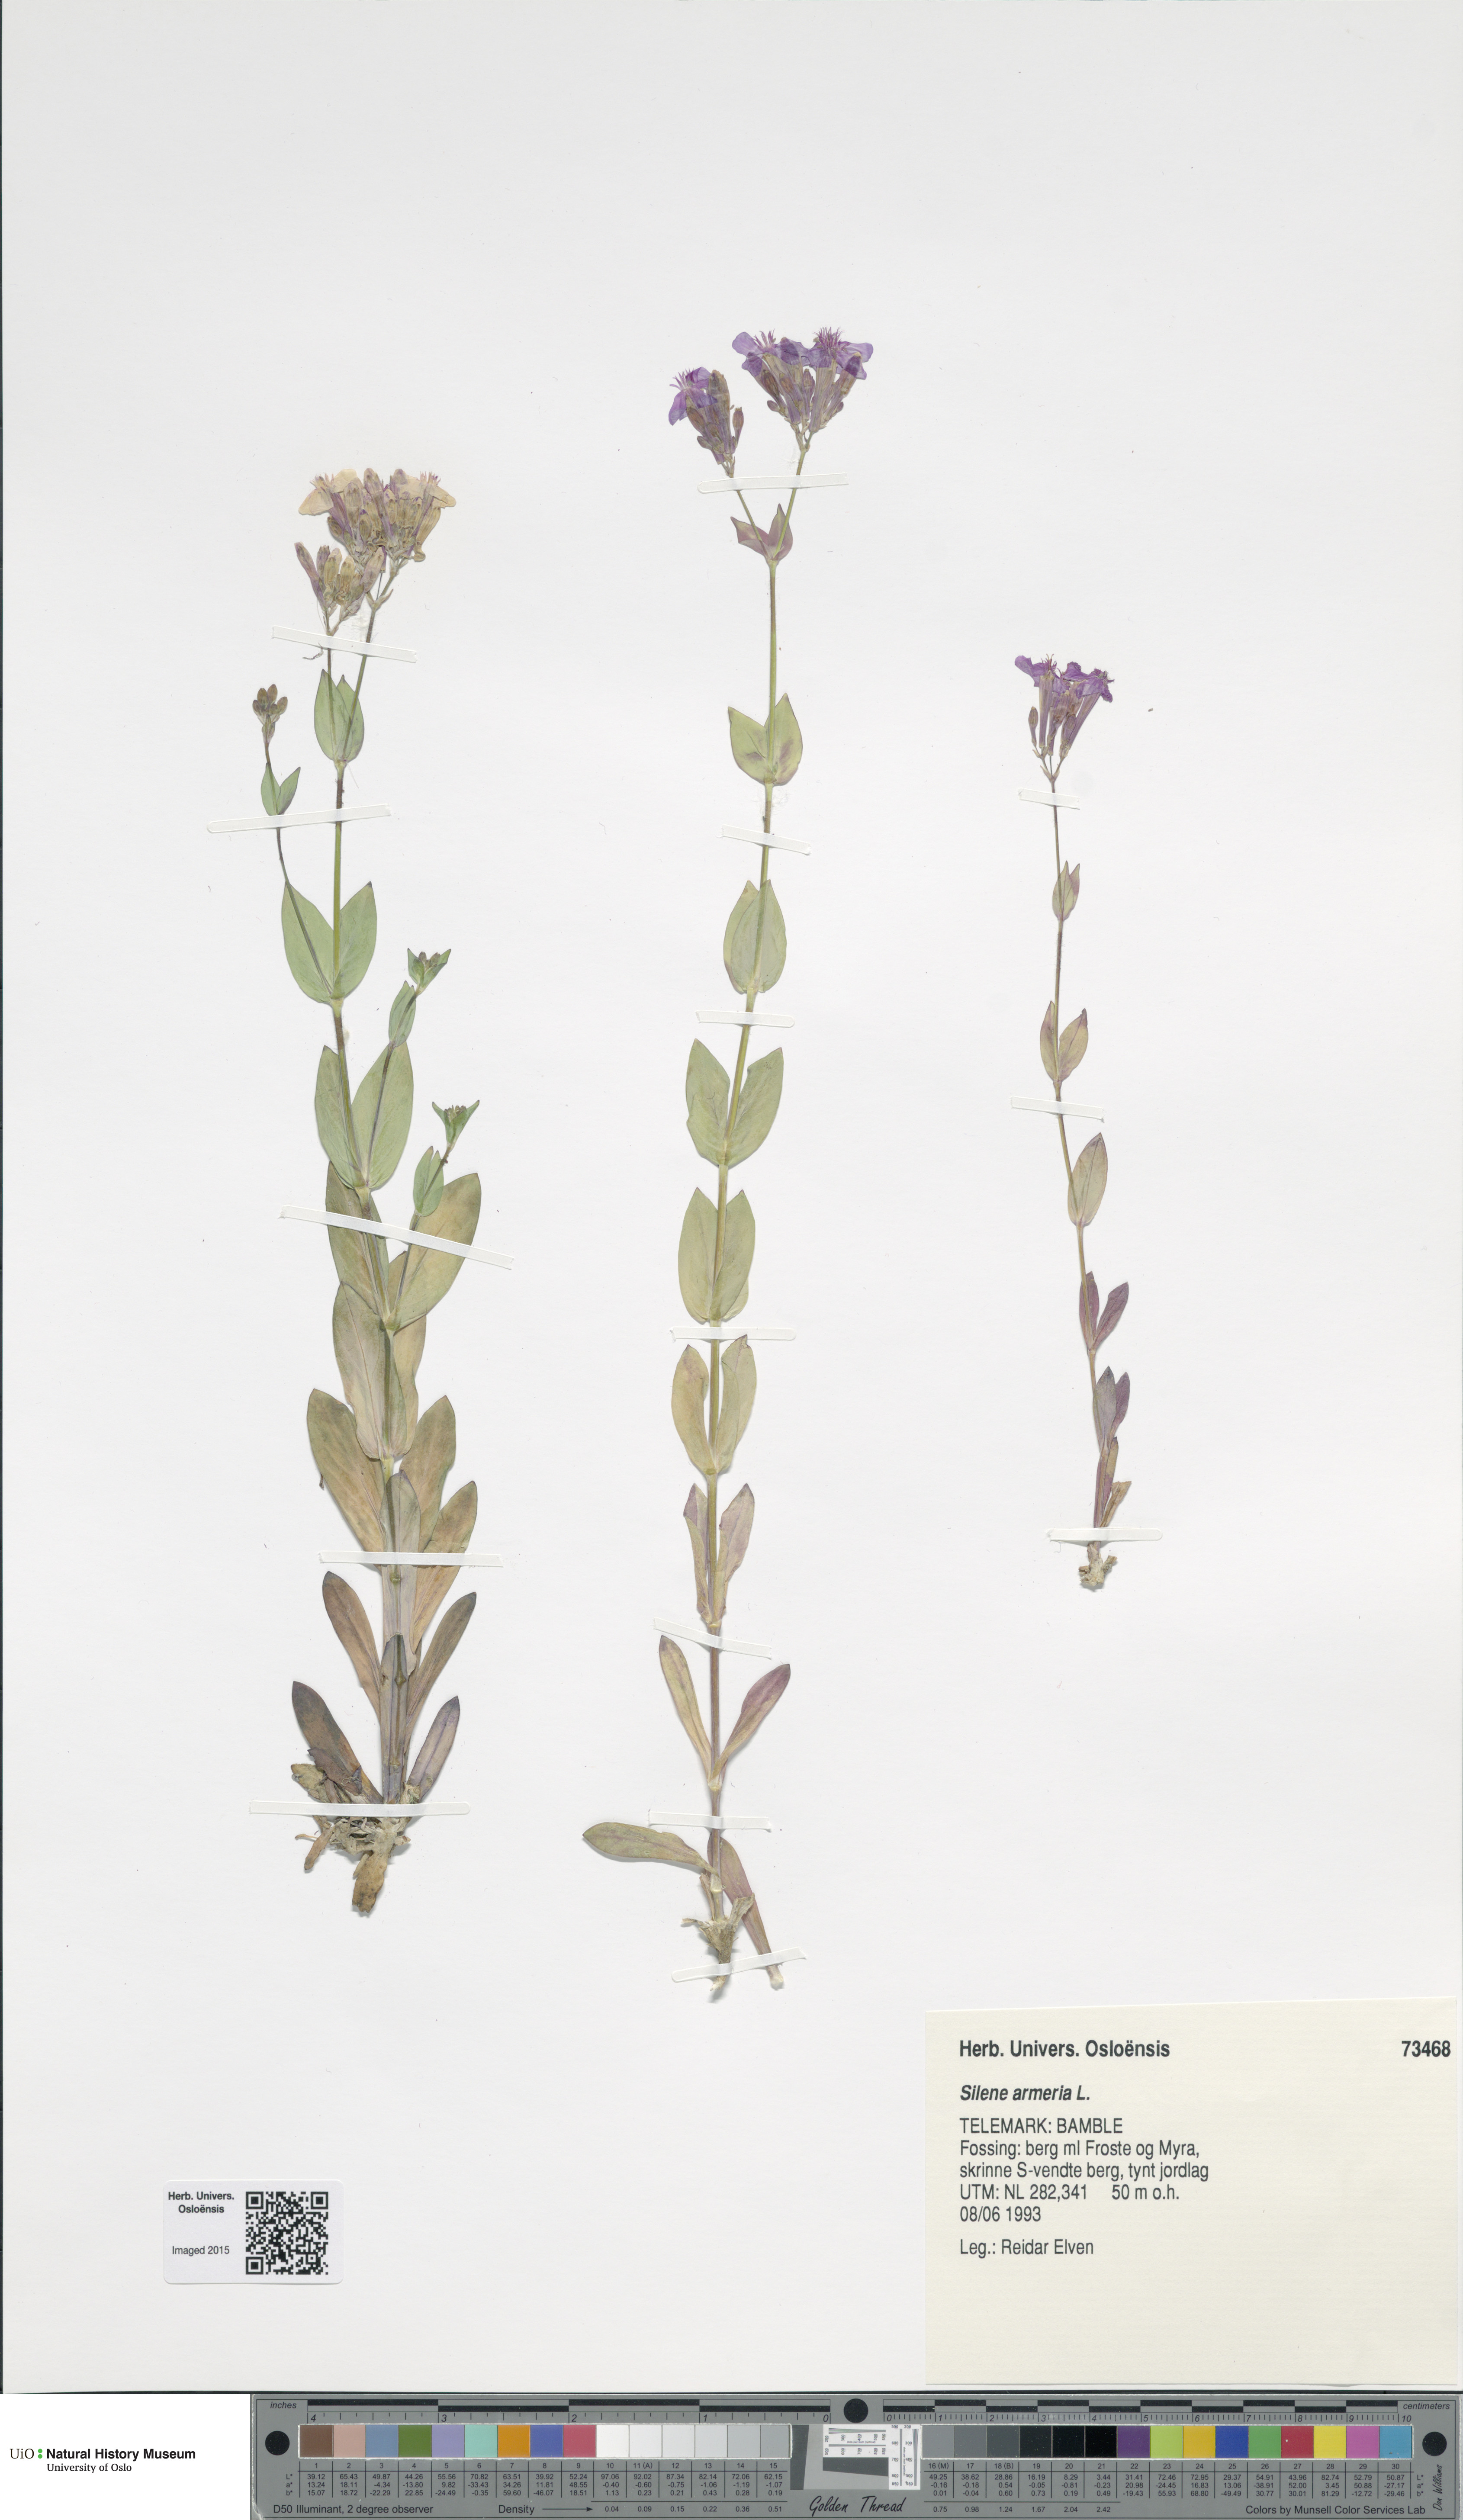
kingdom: Plantae
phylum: Tracheophyta
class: Magnoliopsida
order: Caryophyllales
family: Caryophyllaceae
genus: Atocion
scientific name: Atocion armeria
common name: Sweet william catchfly
